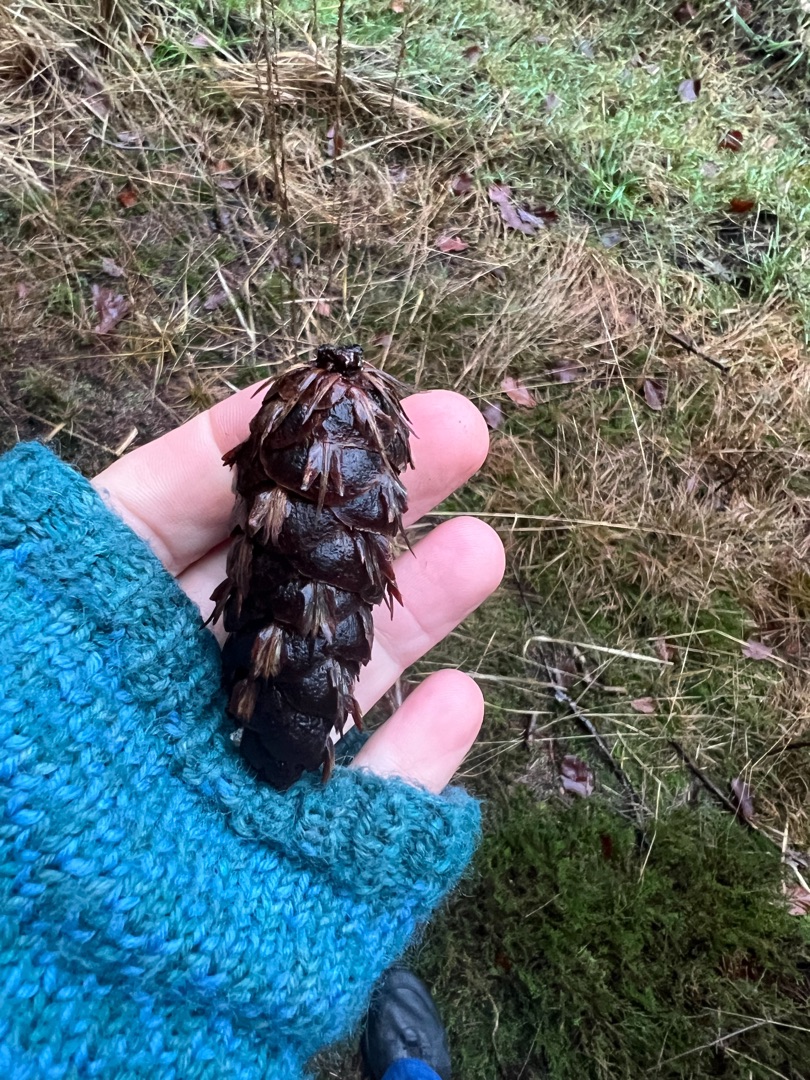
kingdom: Plantae
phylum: Tracheophyta
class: Pinopsida
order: Pinales
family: Pinaceae
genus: Pseudotsuga
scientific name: Pseudotsuga menziesii
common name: Douglasgran
